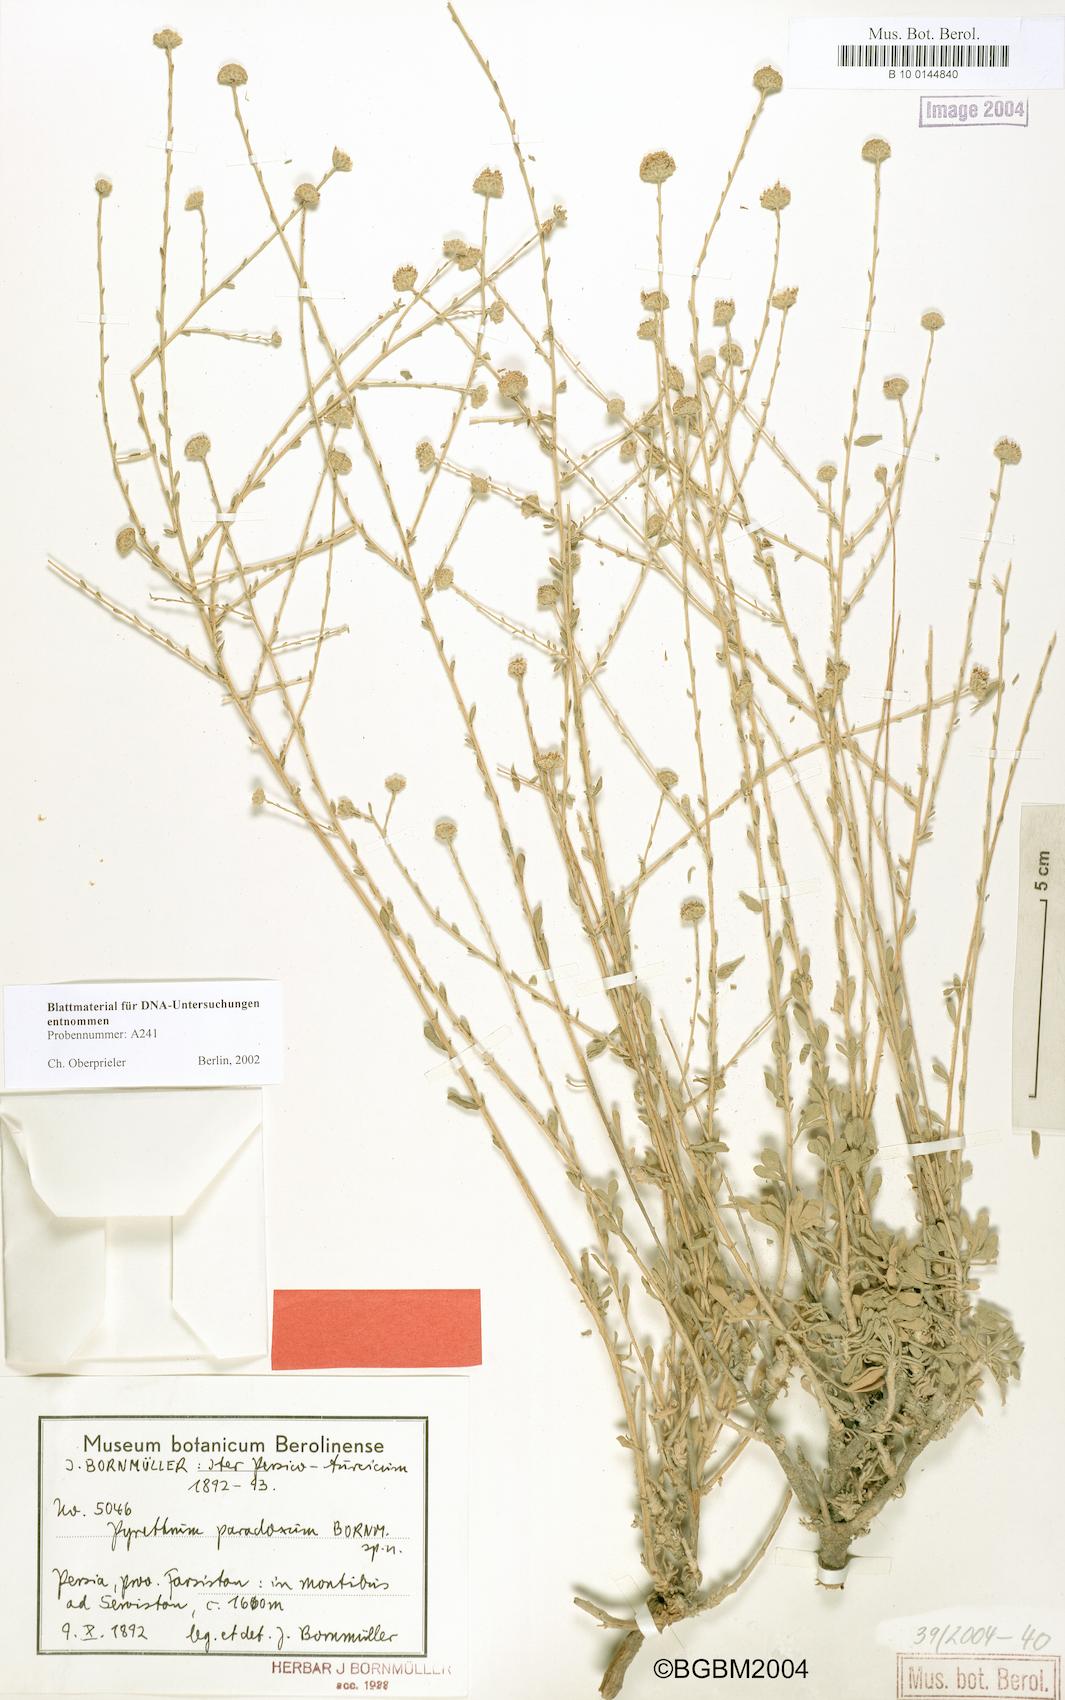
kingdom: Plantae
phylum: Tracheophyta
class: Magnoliopsida
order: Asterales
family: Asteraceae
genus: Tanacetum
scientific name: Tanacetum paradoxum
